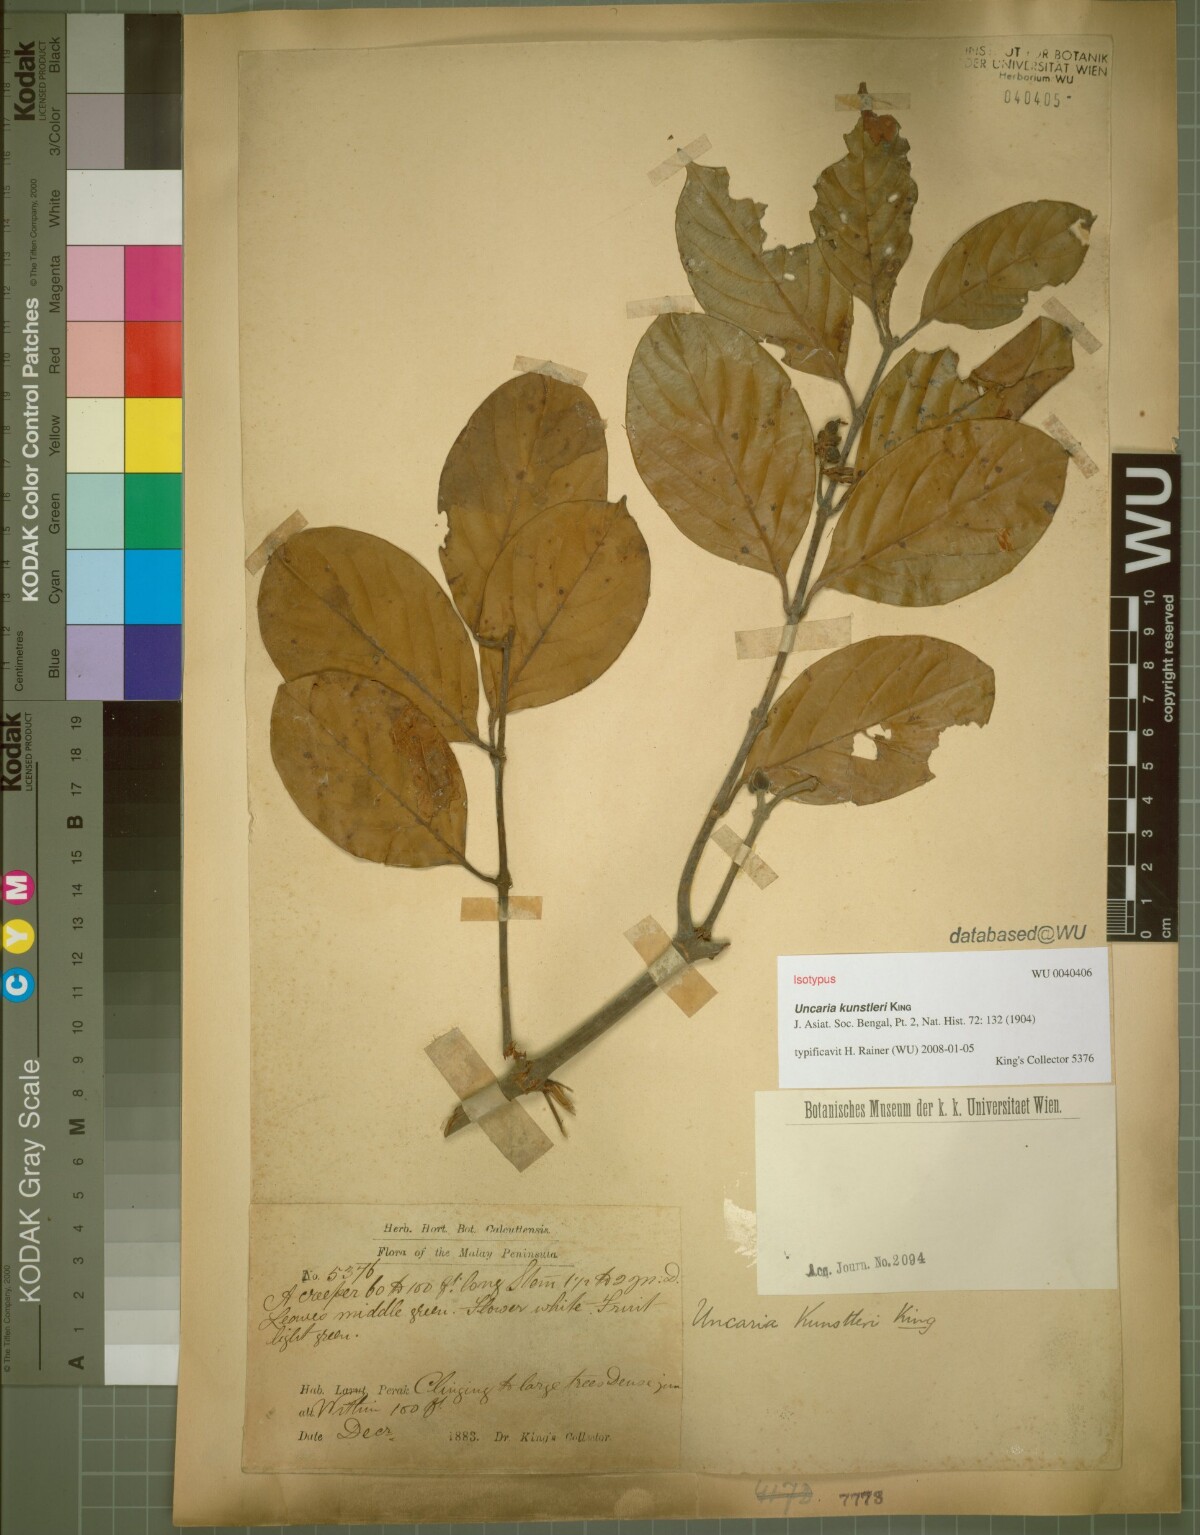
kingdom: Plantae
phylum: Tracheophyta
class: Magnoliopsida
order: Gentianales
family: Rubiaceae
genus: Uncaria
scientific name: Uncaria kunstleri
